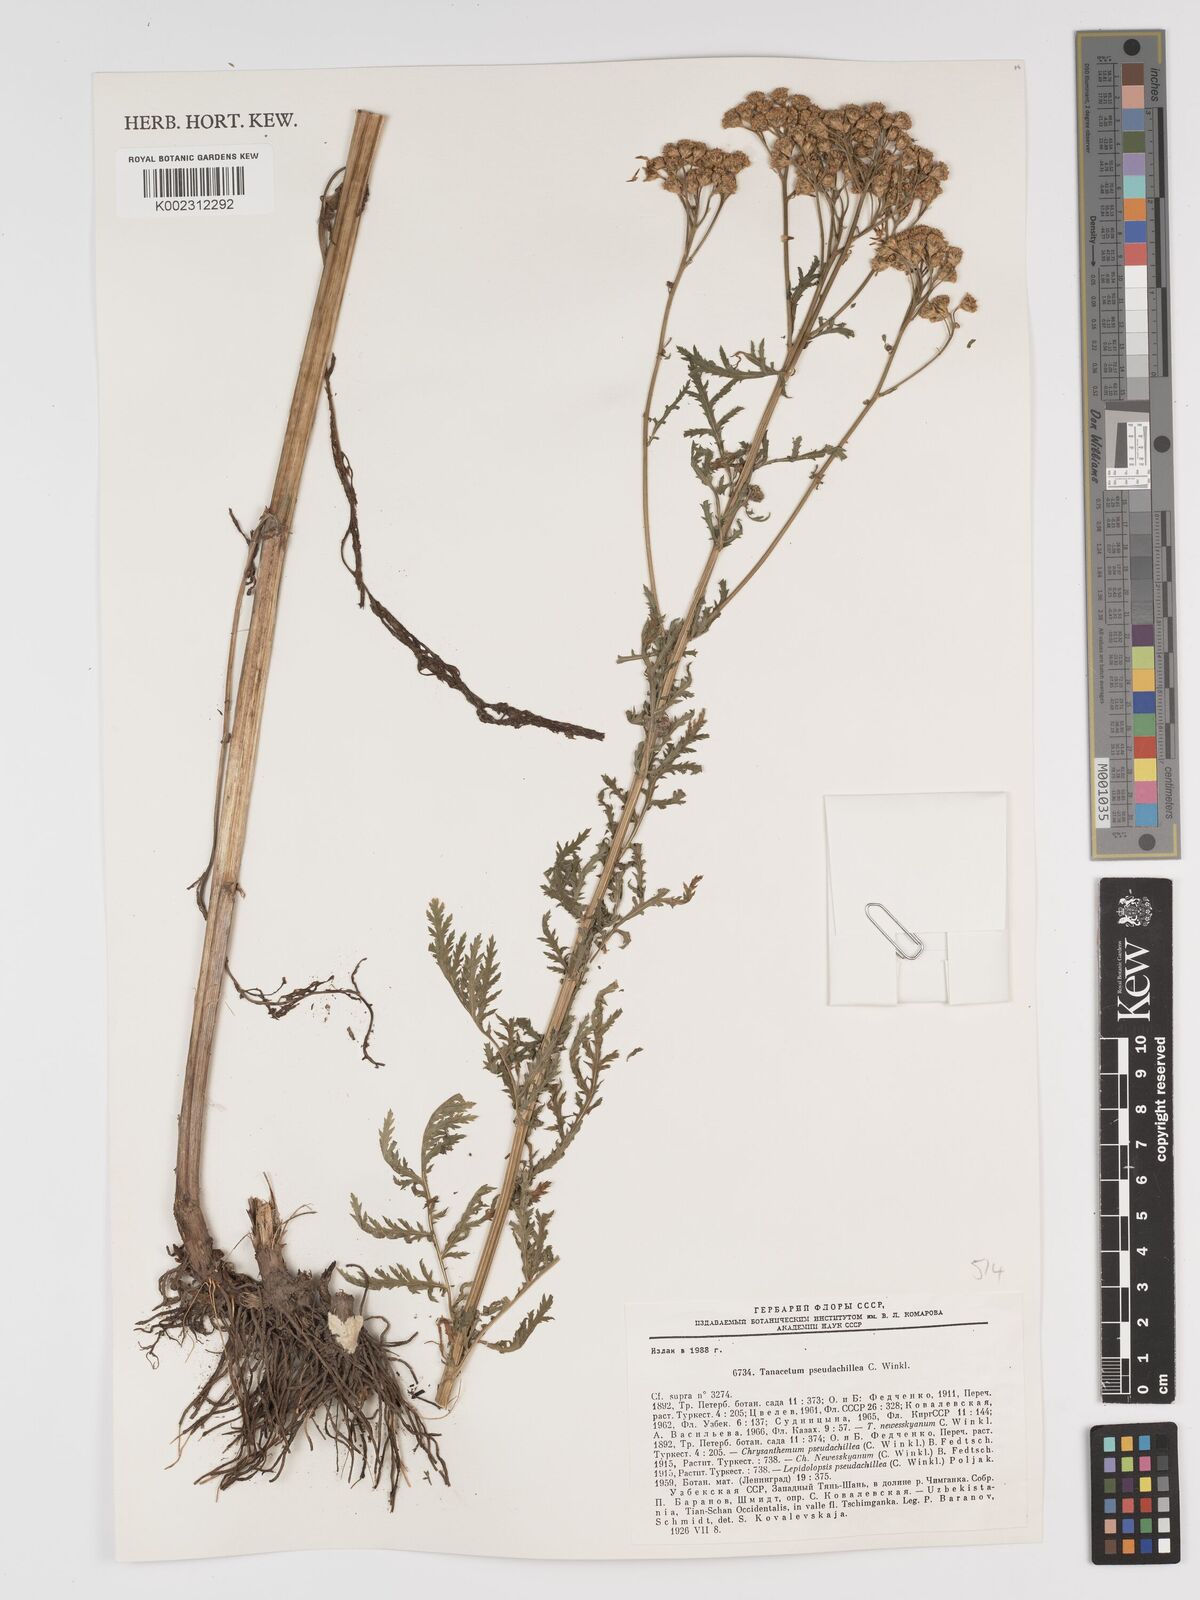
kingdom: Plantae
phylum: Tracheophyta
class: Magnoliopsida
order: Asterales
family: Asteraceae
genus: Lepidolopsis
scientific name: Lepidolopsis pseudoachillea
